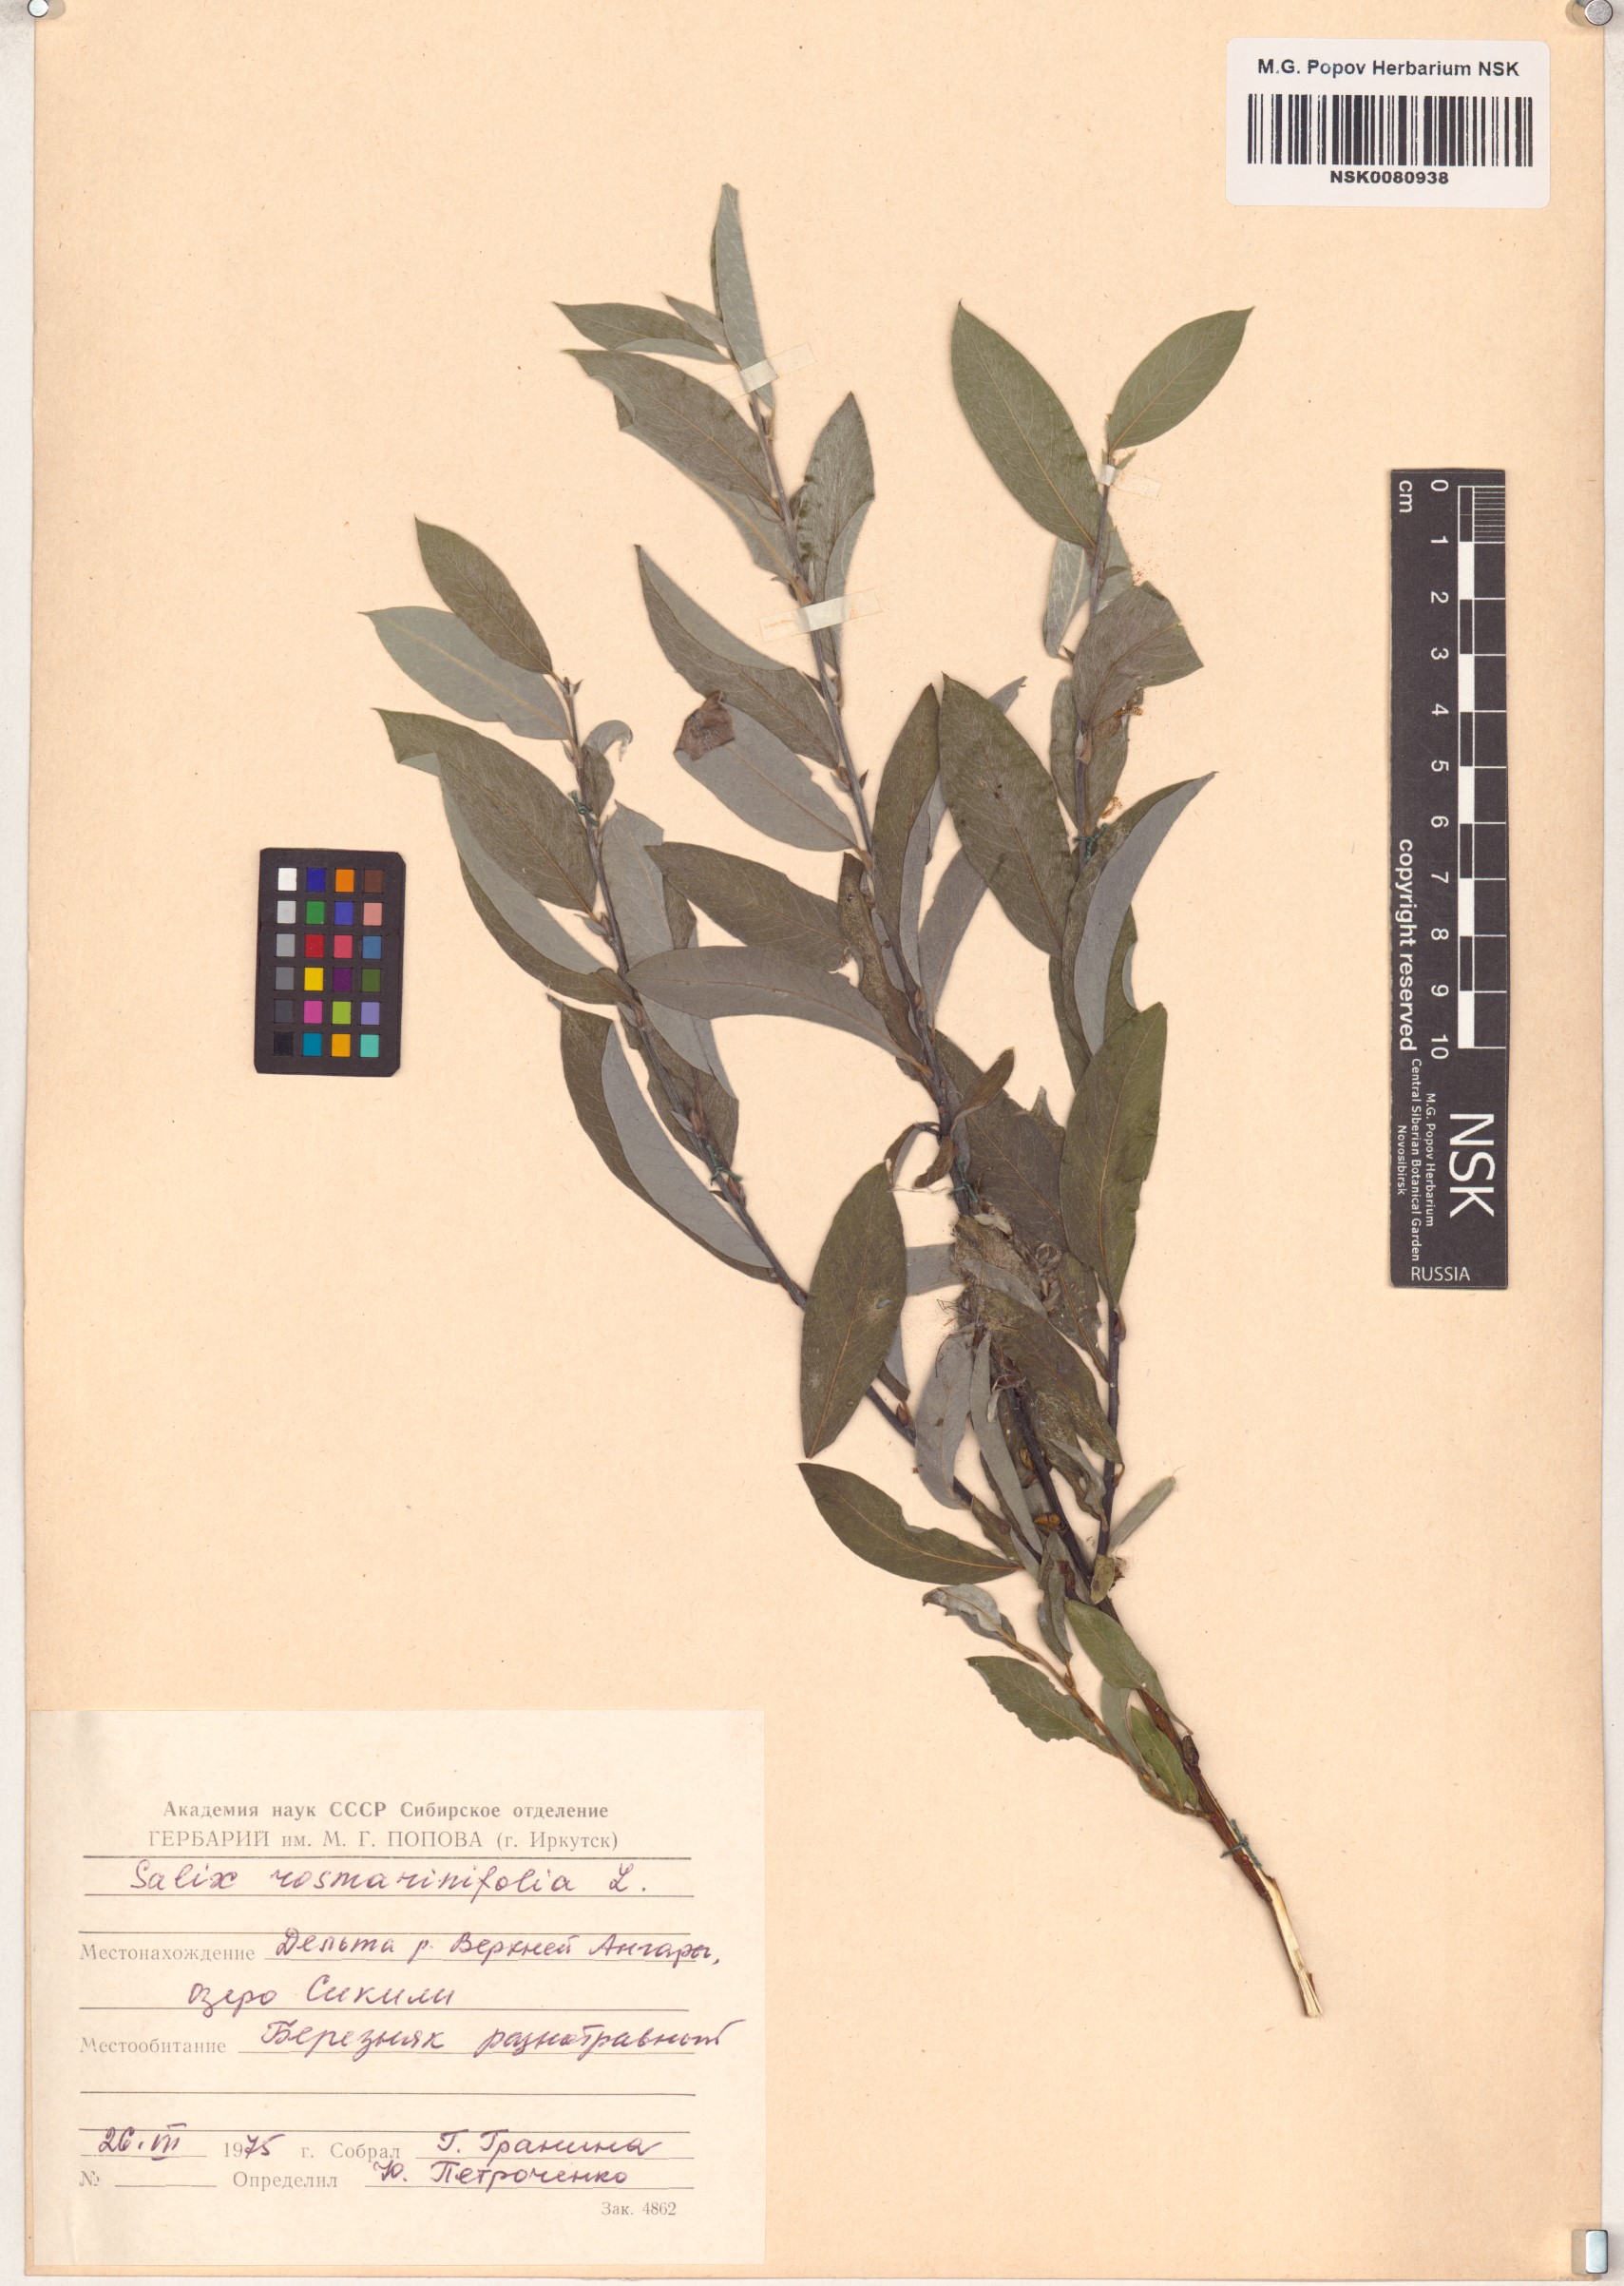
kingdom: Plantae
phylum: Tracheophyta
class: Magnoliopsida
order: Malpighiales
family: Salicaceae
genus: Salix
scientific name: Salix rosmarinifolia
